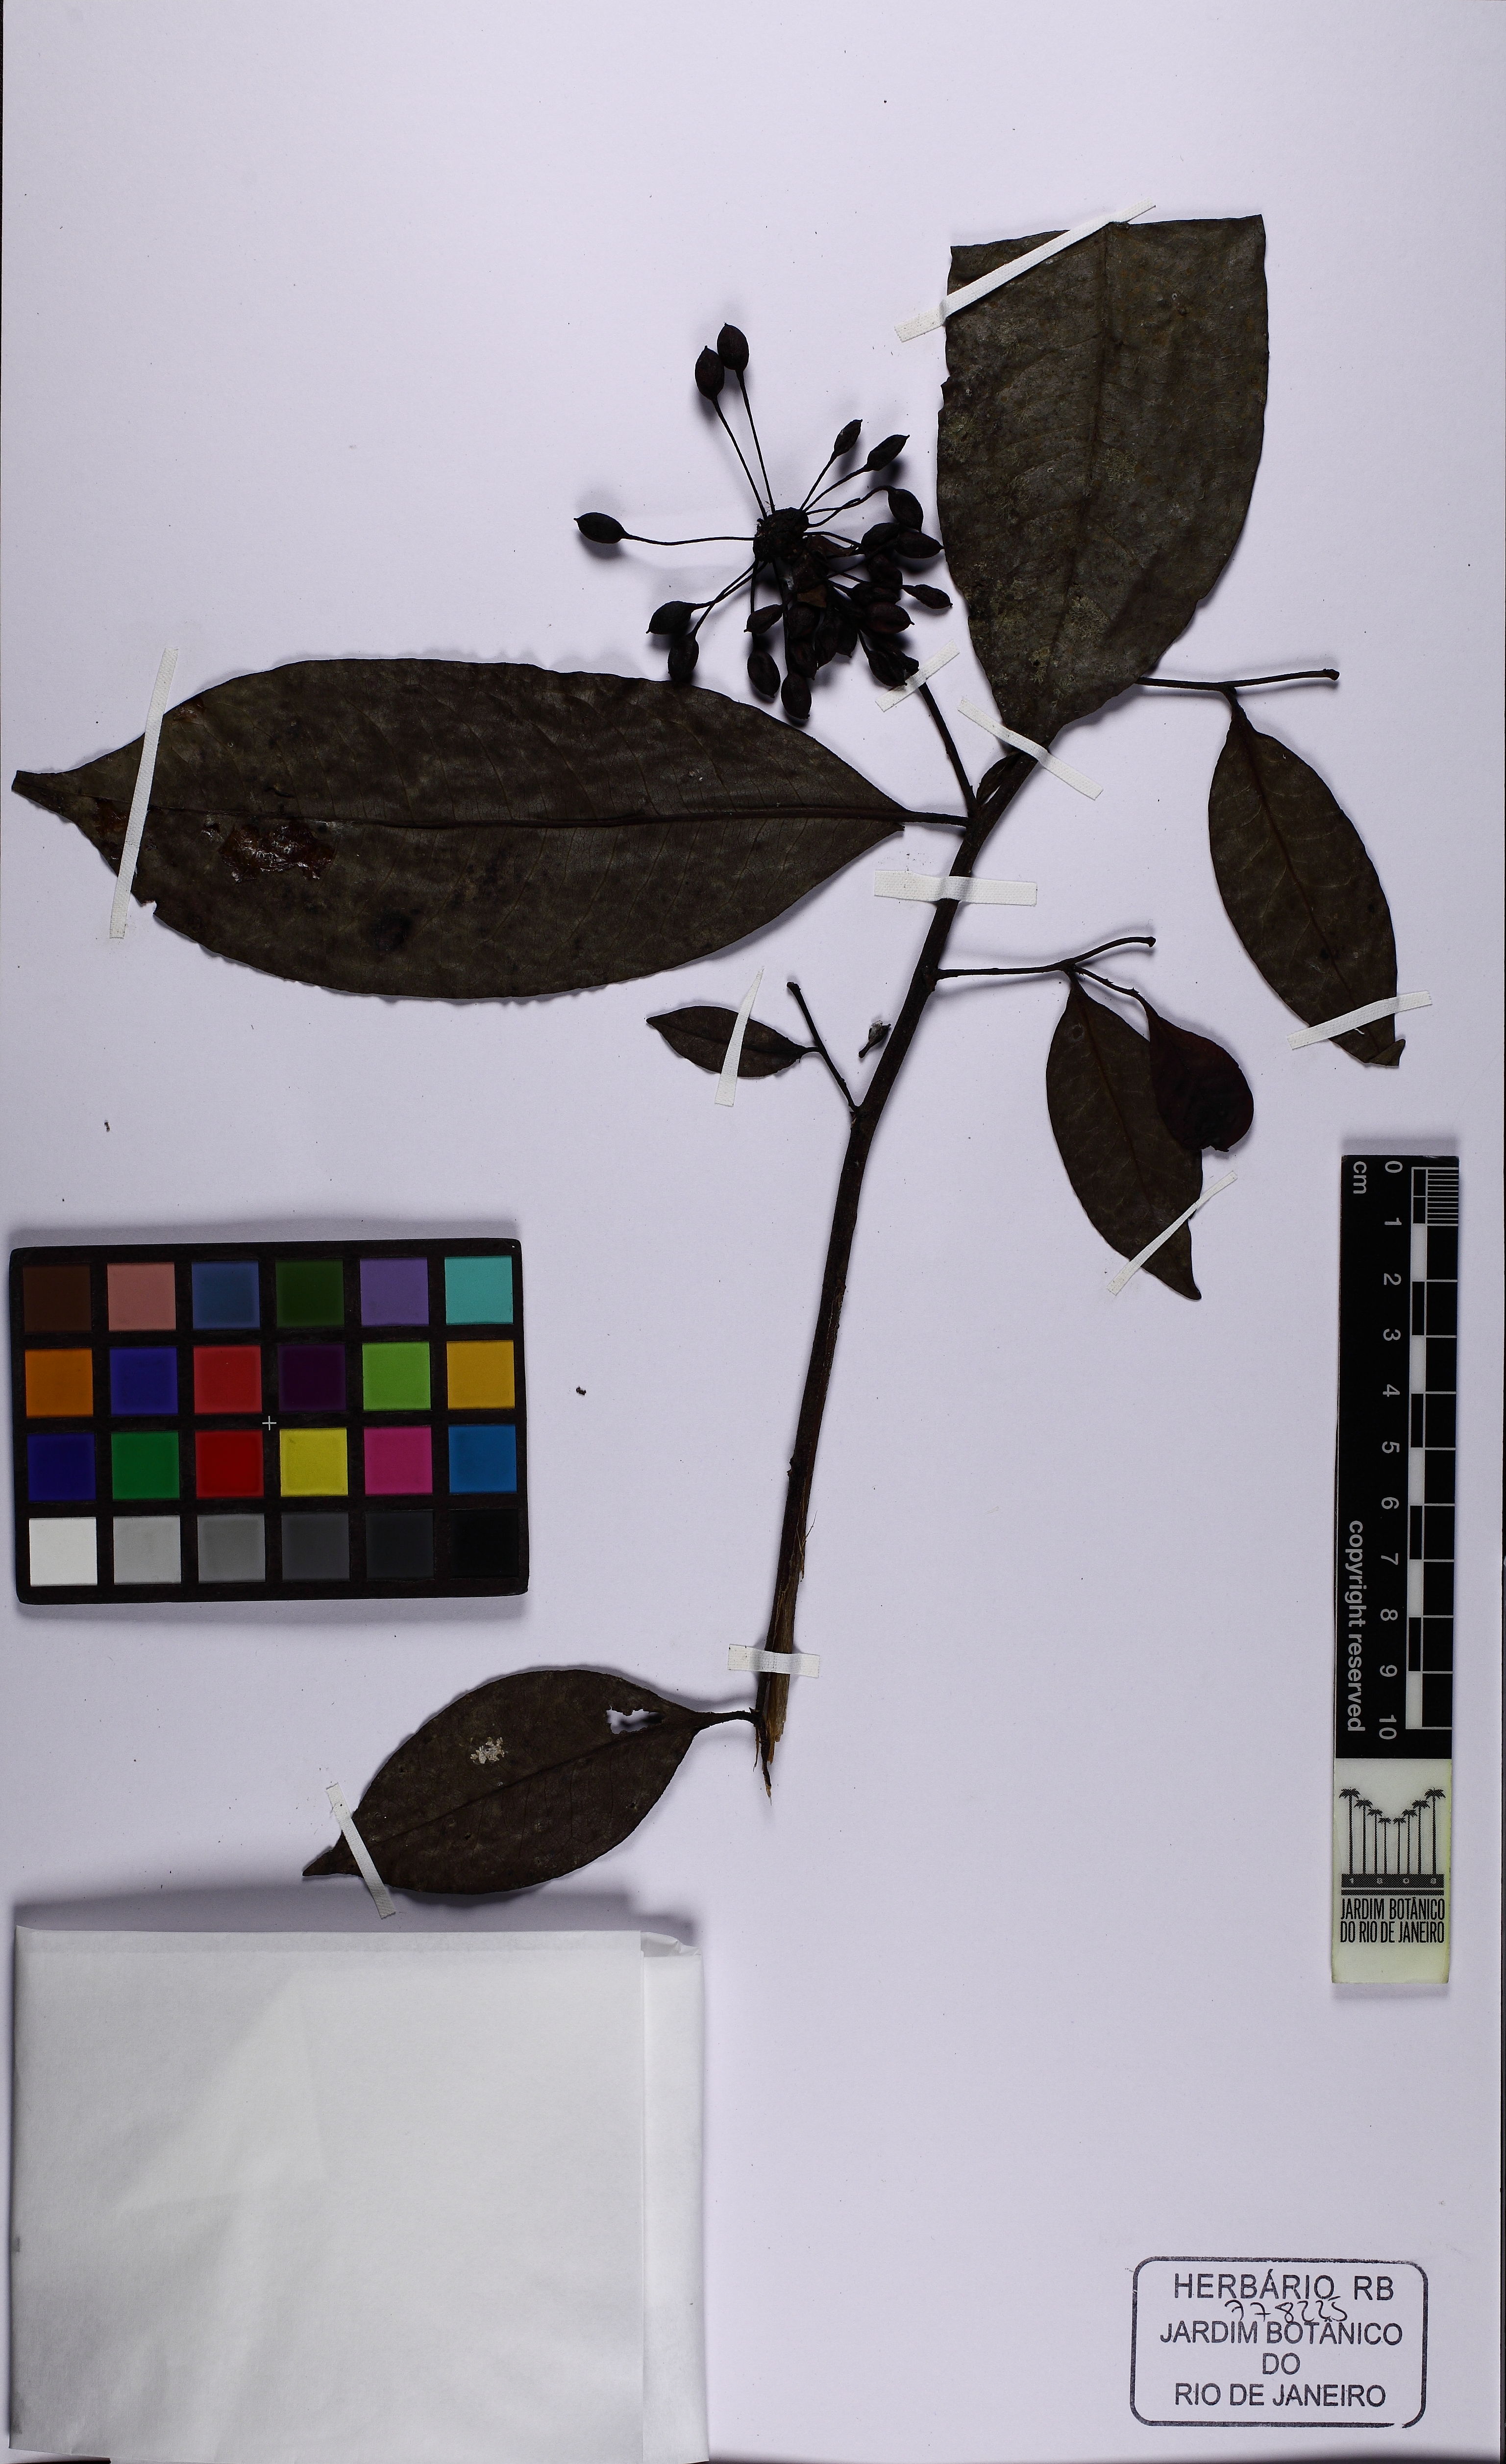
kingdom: Plantae
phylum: Tracheophyta
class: Magnoliopsida
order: Magnoliales
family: Annonaceae
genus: Guatteria
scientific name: Guatteria latifolia
